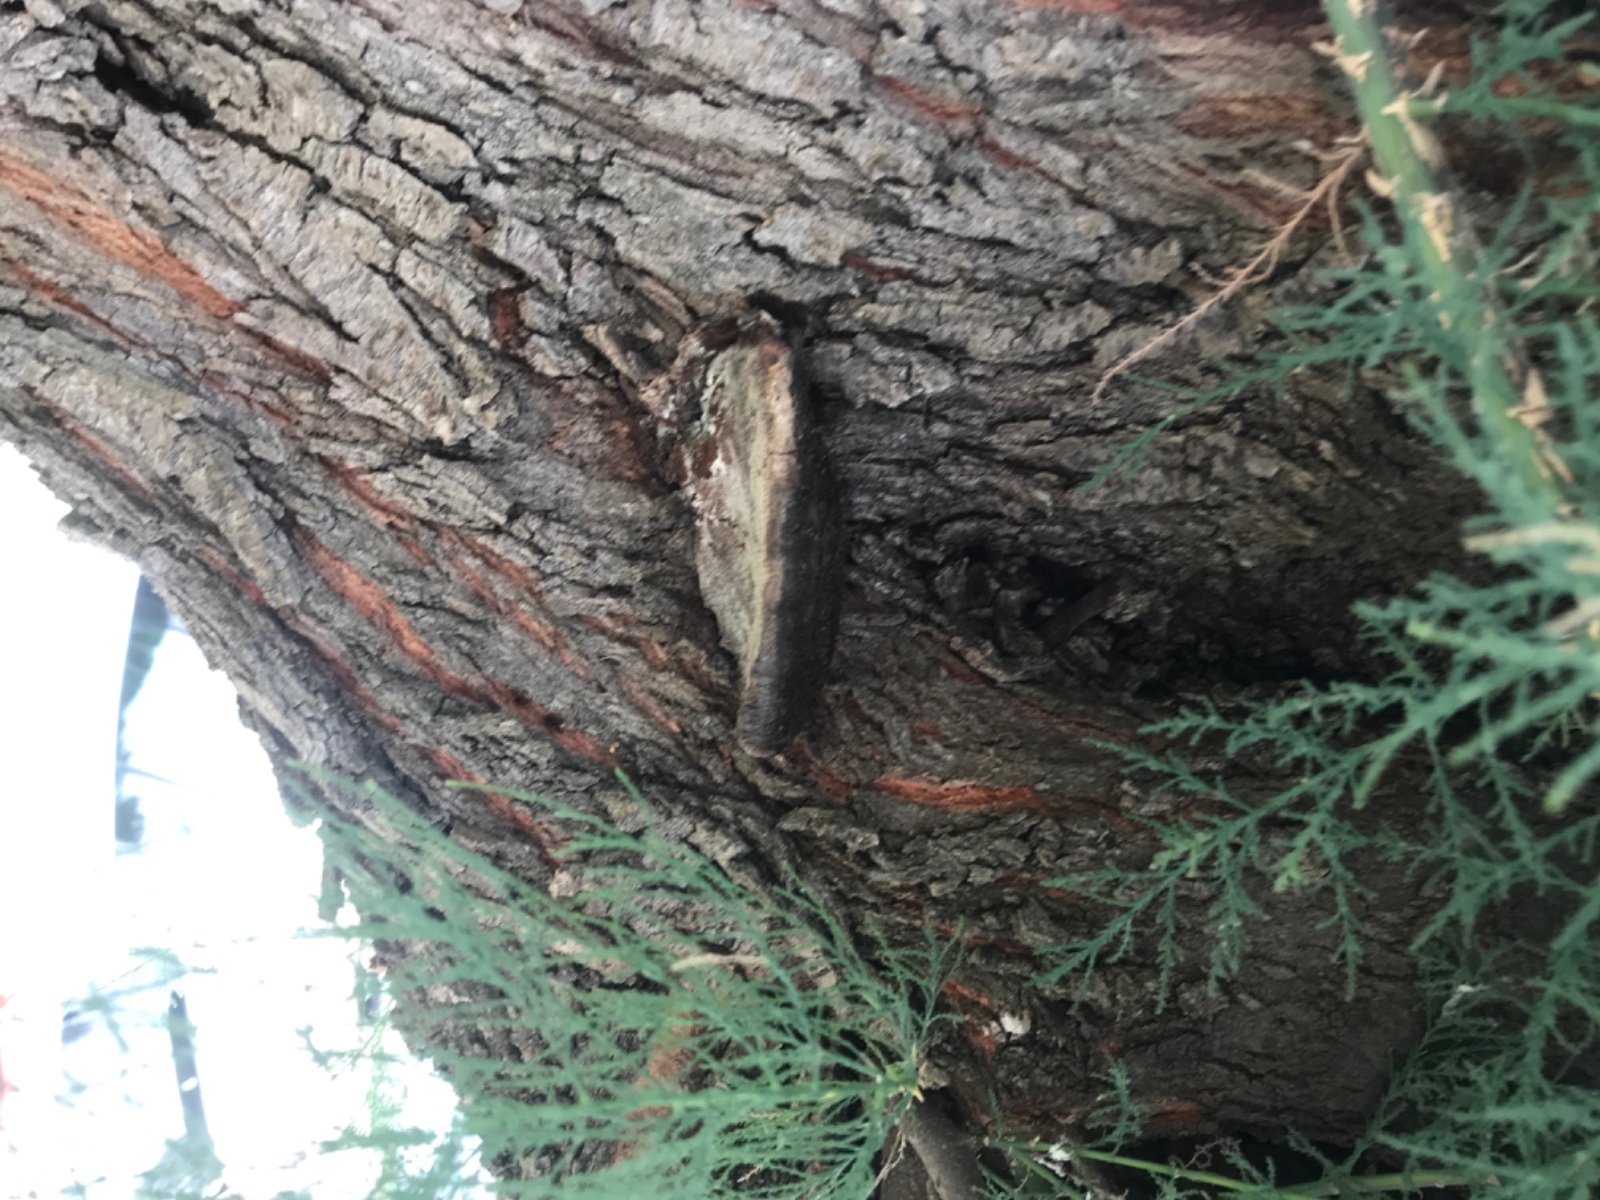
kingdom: Fungi
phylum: Basidiomycota
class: Agaricomycetes
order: Hymenochaetales
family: Hymenochaetaceae
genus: Inocutis
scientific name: Inocutis tamaricis
